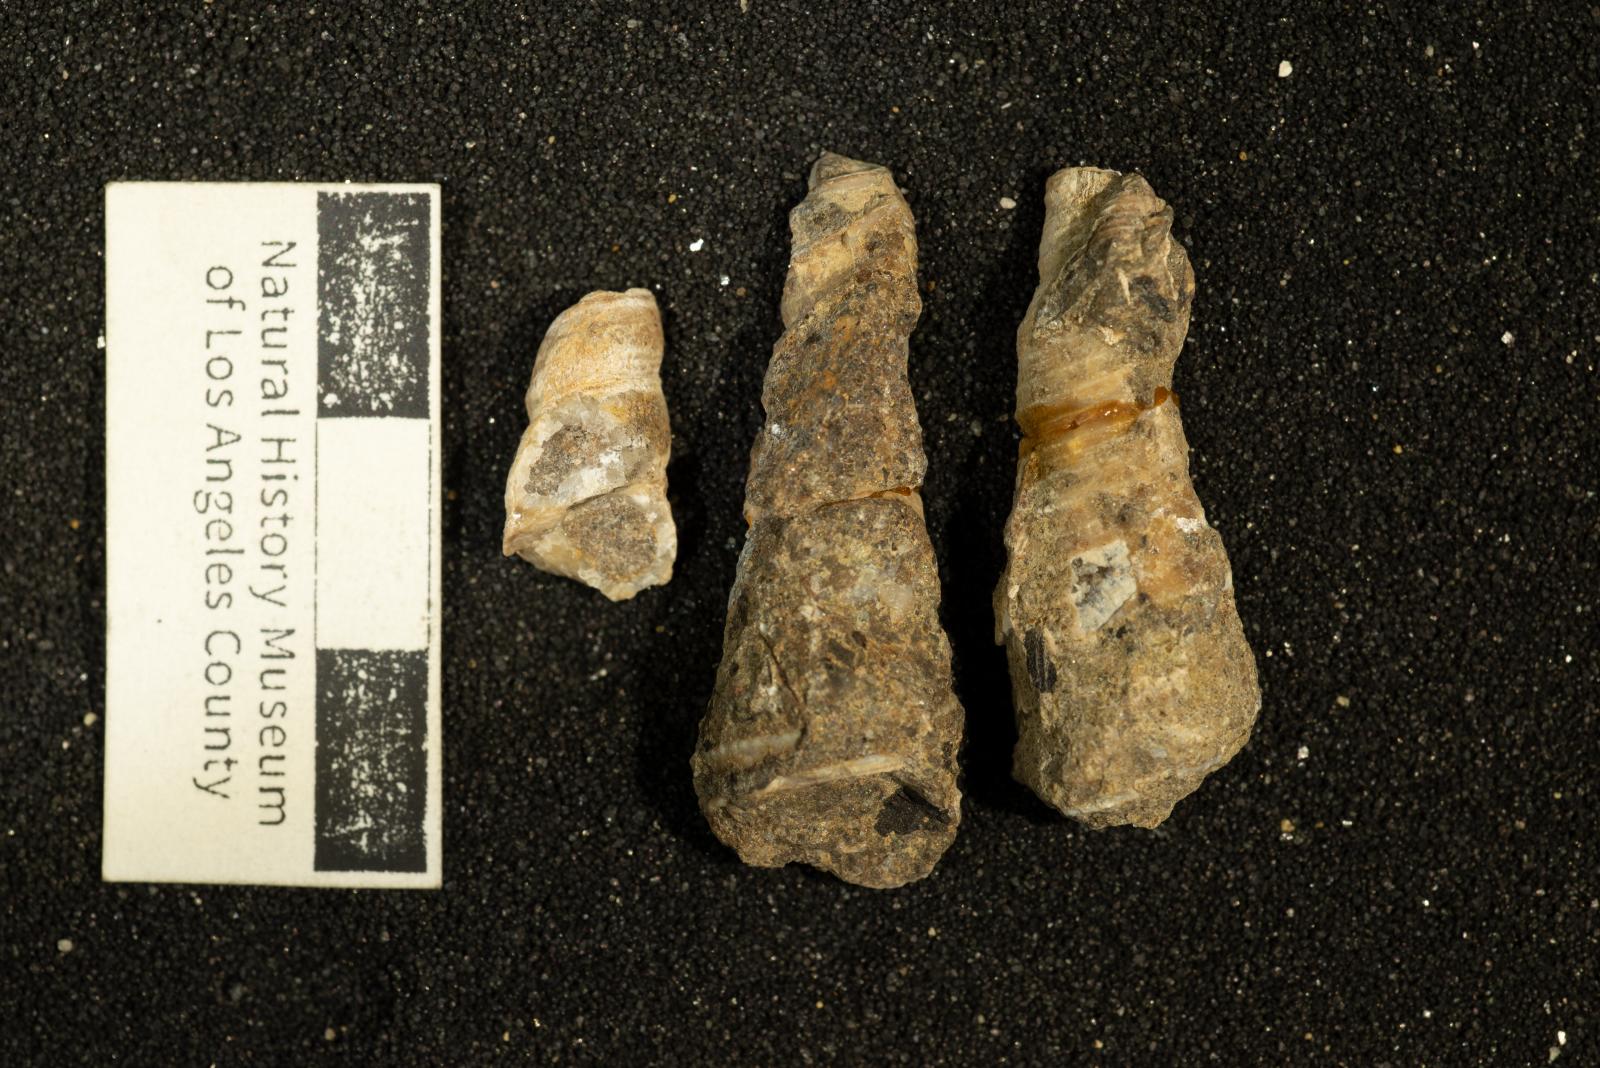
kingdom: Animalia
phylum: Mollusca
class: Gastropoda
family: Turritellidae
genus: Turritella
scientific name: Turritella chicoensis
